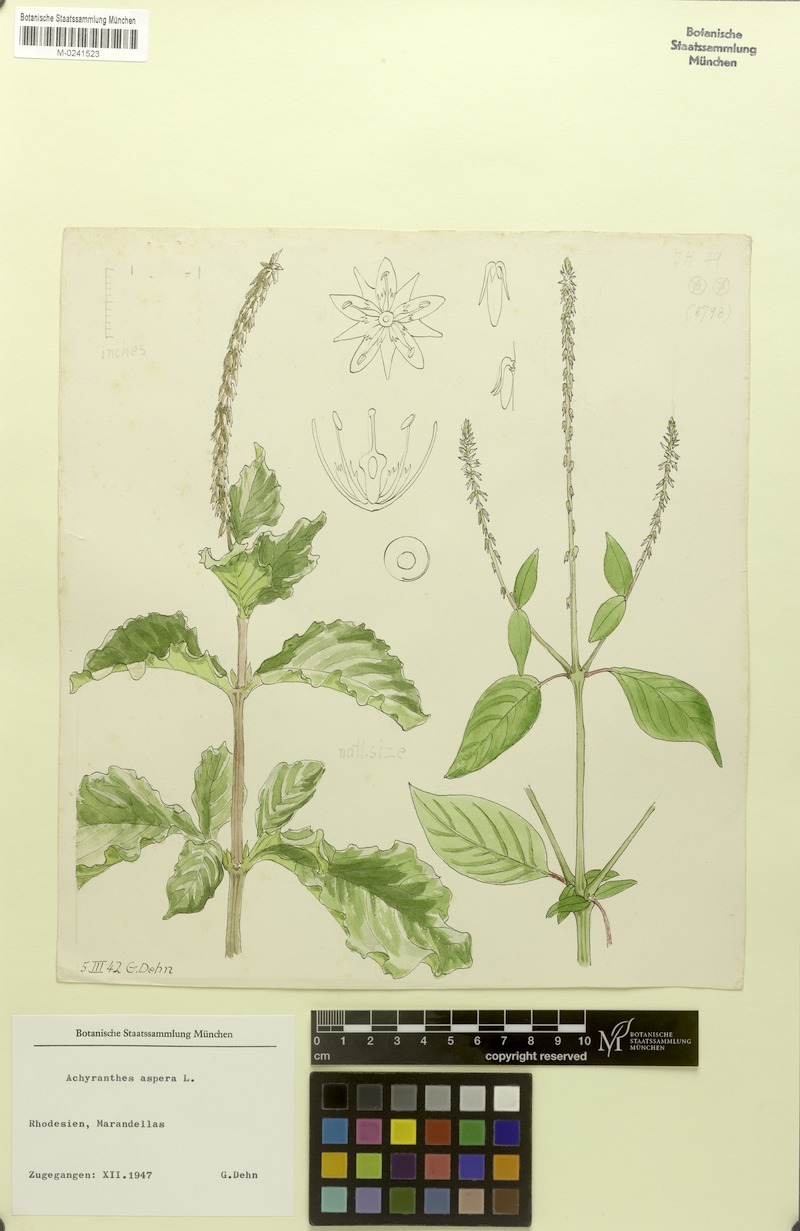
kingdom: Plantae
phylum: Tracheophyta
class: Magnoliopsida
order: Caryophyllales
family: Amaranthaceae
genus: Achyranthes
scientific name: Achyranthes aspera
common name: Devil's horsewhip
